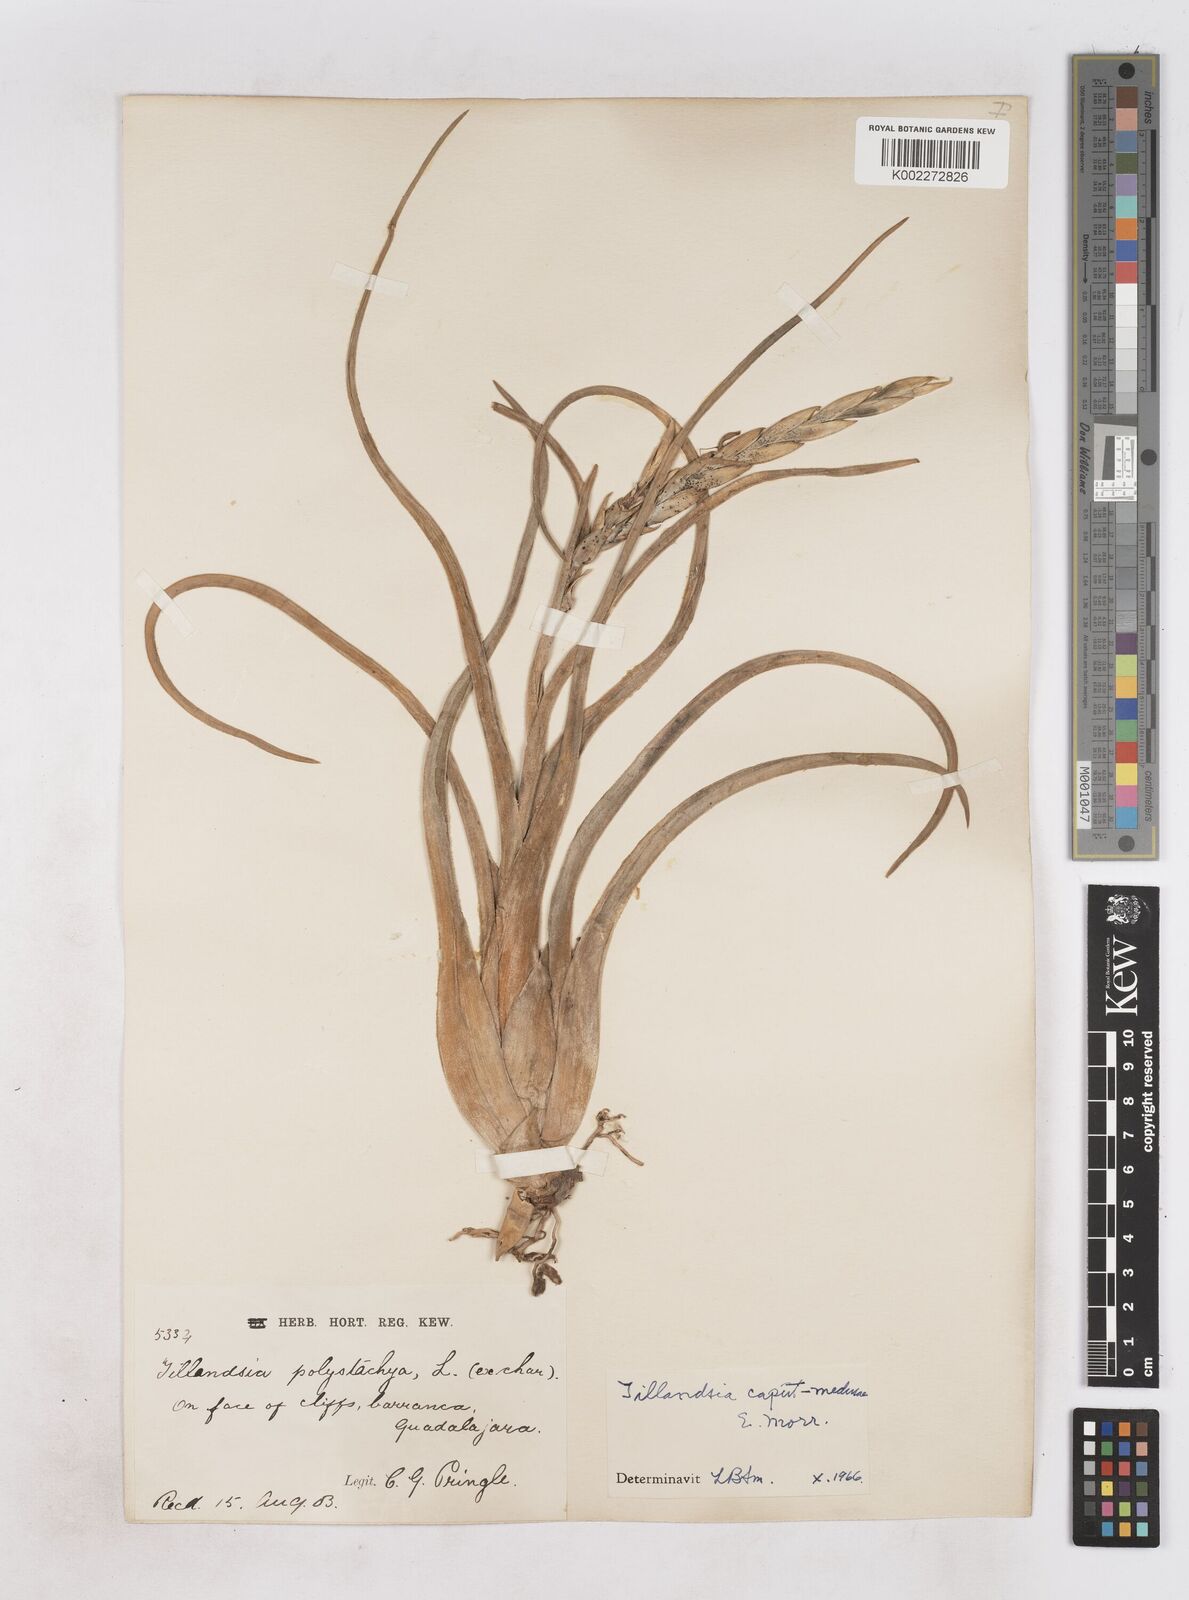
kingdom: Plantae
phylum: Tracheophyta
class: Liliopsida
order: Poales
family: Bromeliaceae
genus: Tillandsia
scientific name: Tillandsia caput-medusae
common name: Octopus plant
